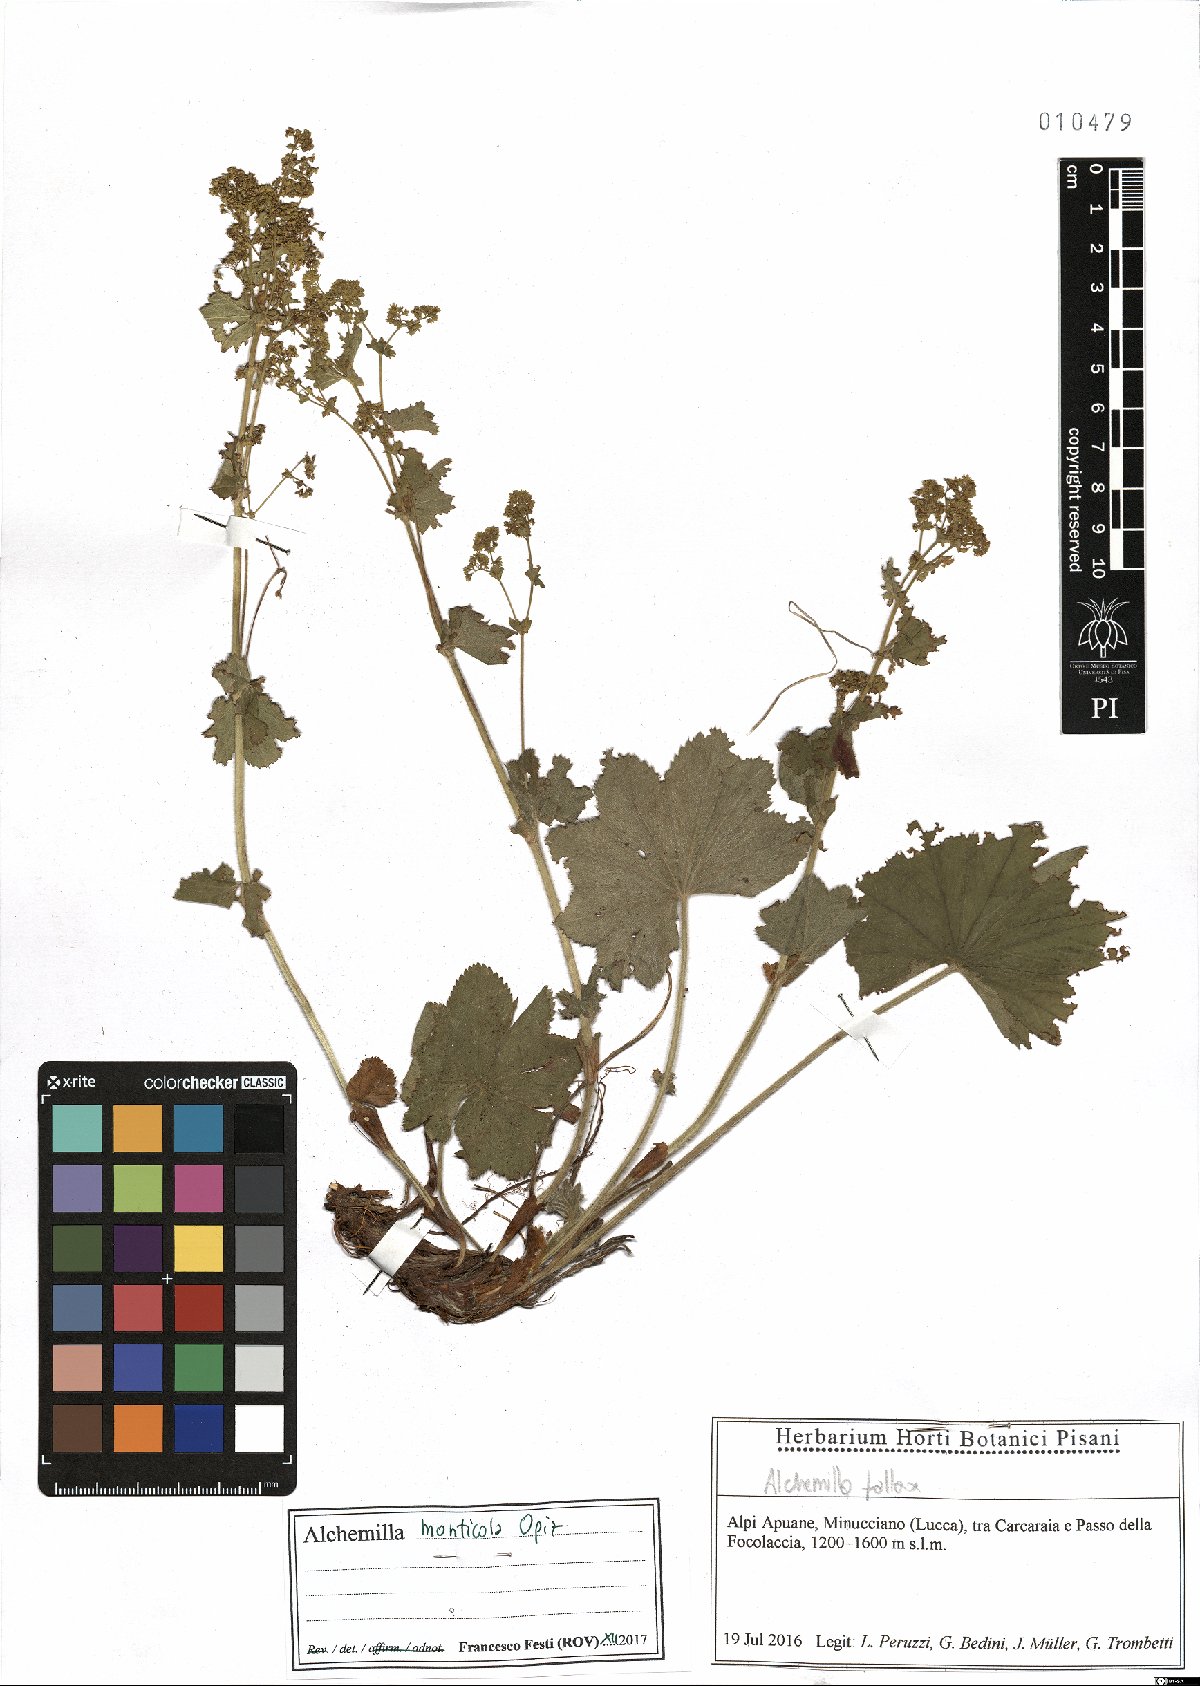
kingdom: Plantae
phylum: Tracheophyta
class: Magnoliopsida
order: Rosales
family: Rosaceae
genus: Alchemilla
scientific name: Alchemilla monticola
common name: Hairy lady's mantle
